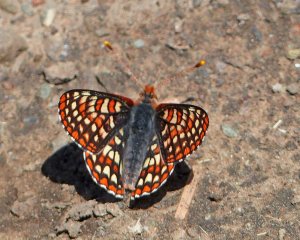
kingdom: Animalia
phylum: Arthropoda
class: Insecta
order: Lepidoptera
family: Nymphalidae
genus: Occidryas
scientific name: Occidryas anicia
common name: Anicia Checkerspot
